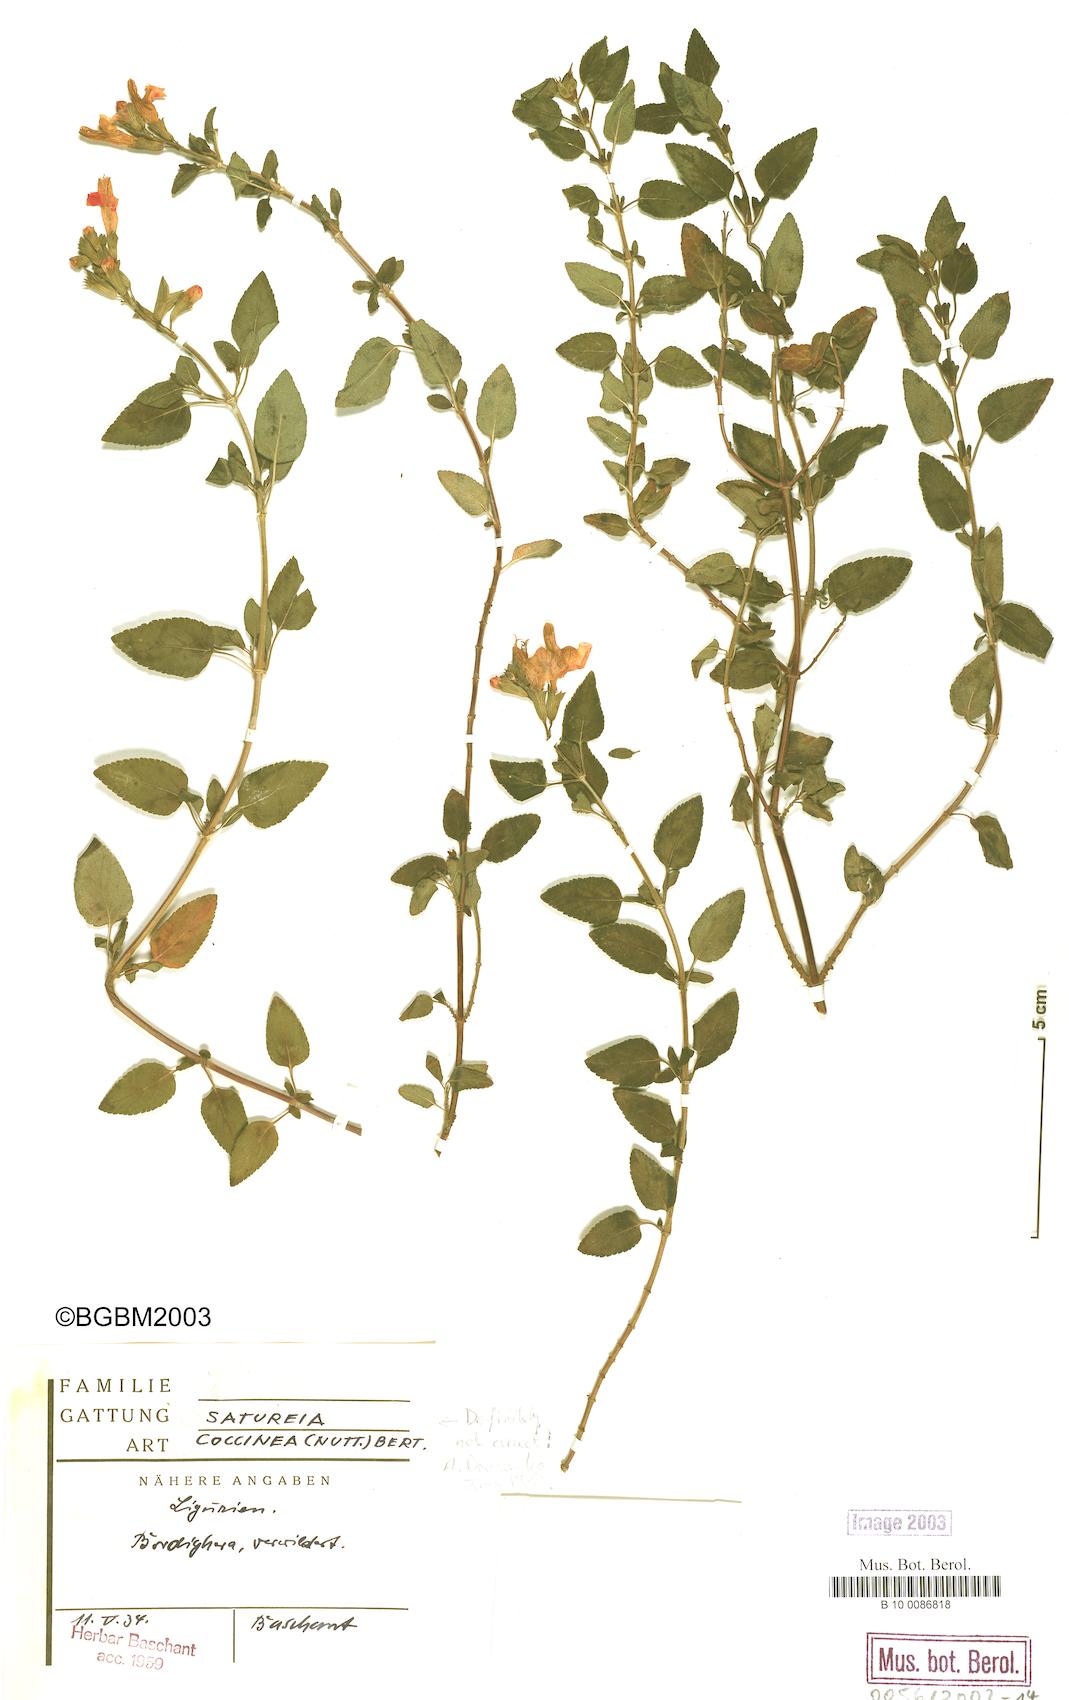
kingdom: Plantae
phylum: Tracheophyta
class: Magnoliopsida
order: Lamiales
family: Lamiaceae
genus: Clinopodium
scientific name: Clinopodium coccineum
